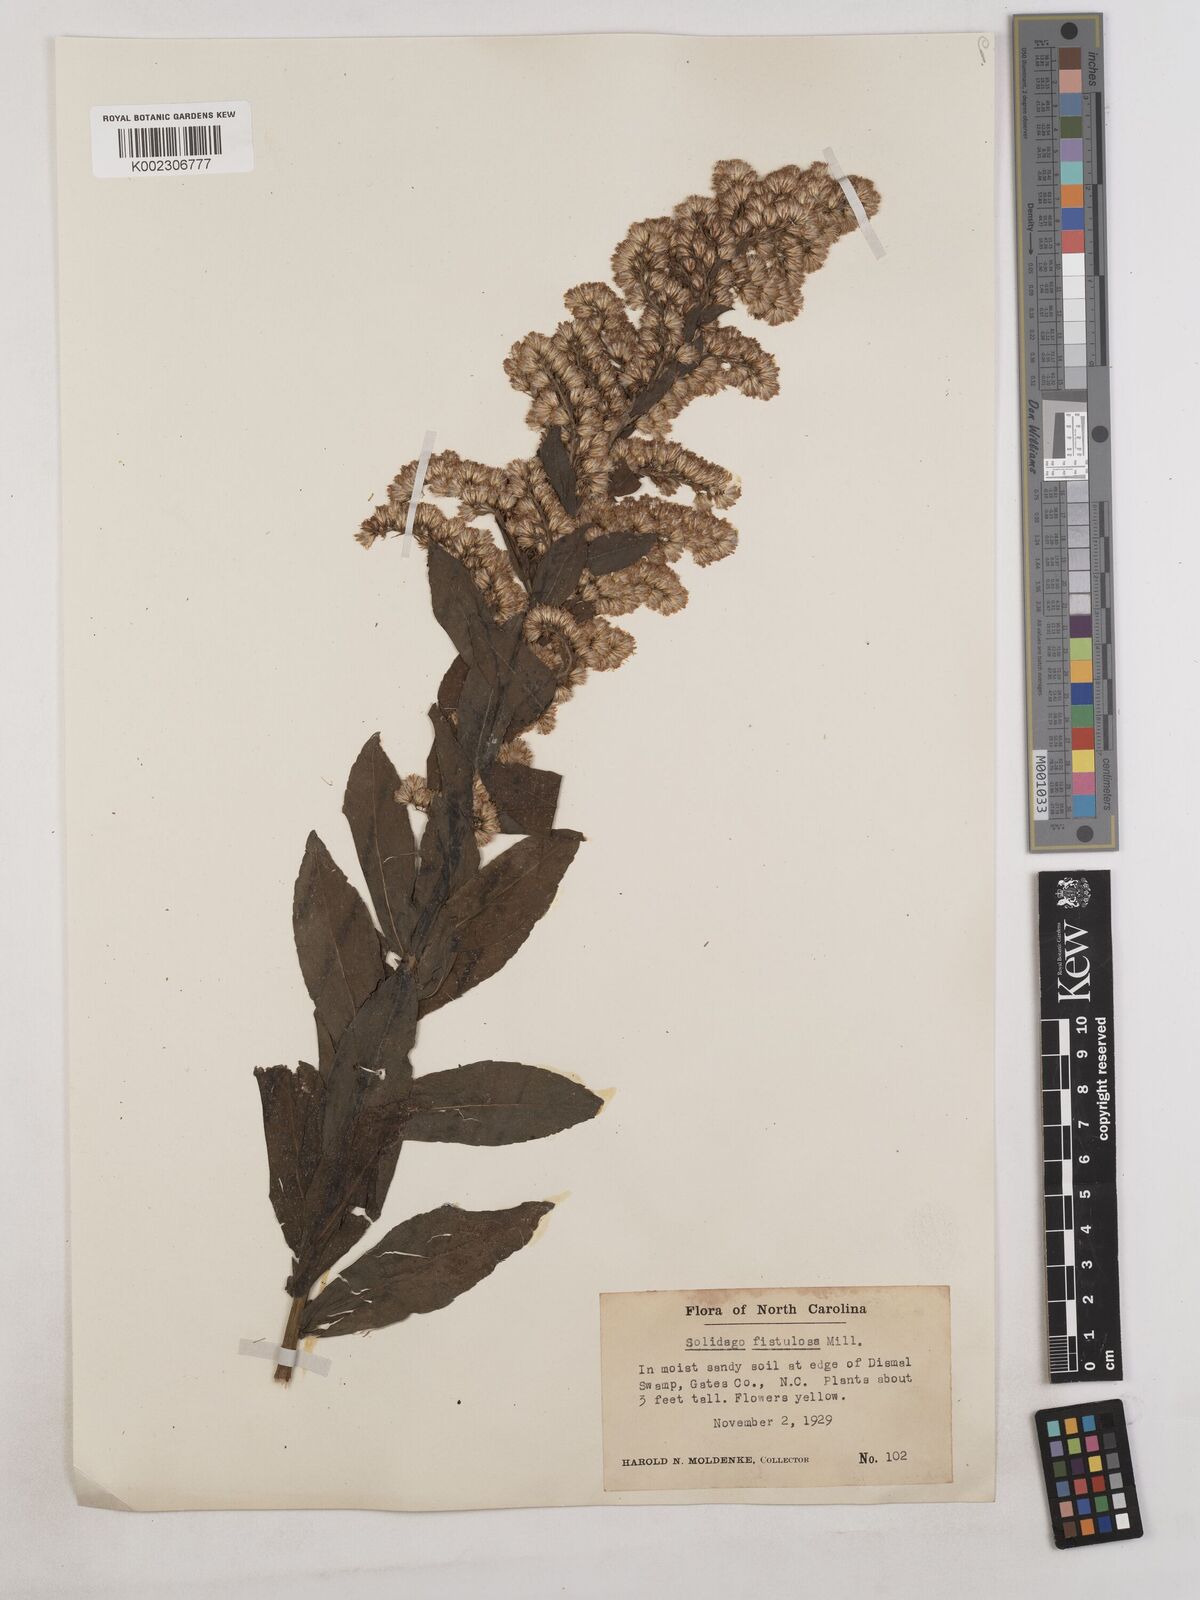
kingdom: Plantae
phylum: Tracheophyta
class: Magnoliopsida
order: Asterales
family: Asteraceae
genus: Solidago
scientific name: Solidago fistulosa
